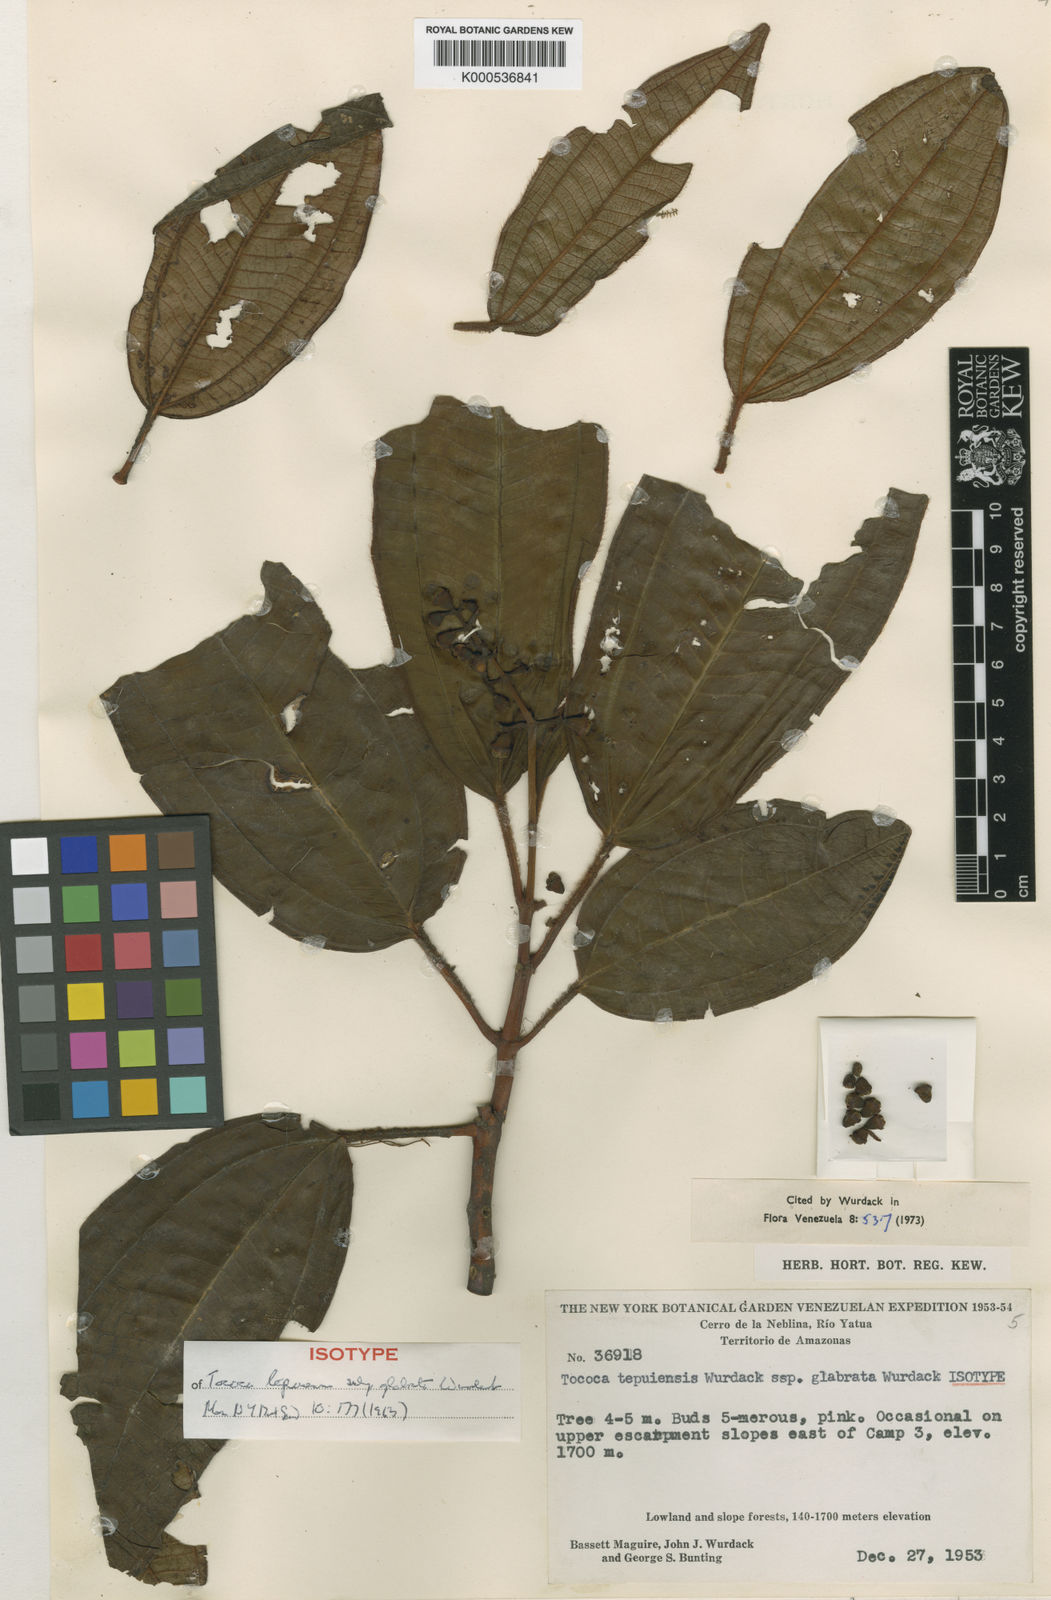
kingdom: Plantae
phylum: Tracheophyta
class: Magnoliopsida
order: Myrtales
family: Melastomataceae
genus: Miconia
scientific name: Miconia tepuiensis
